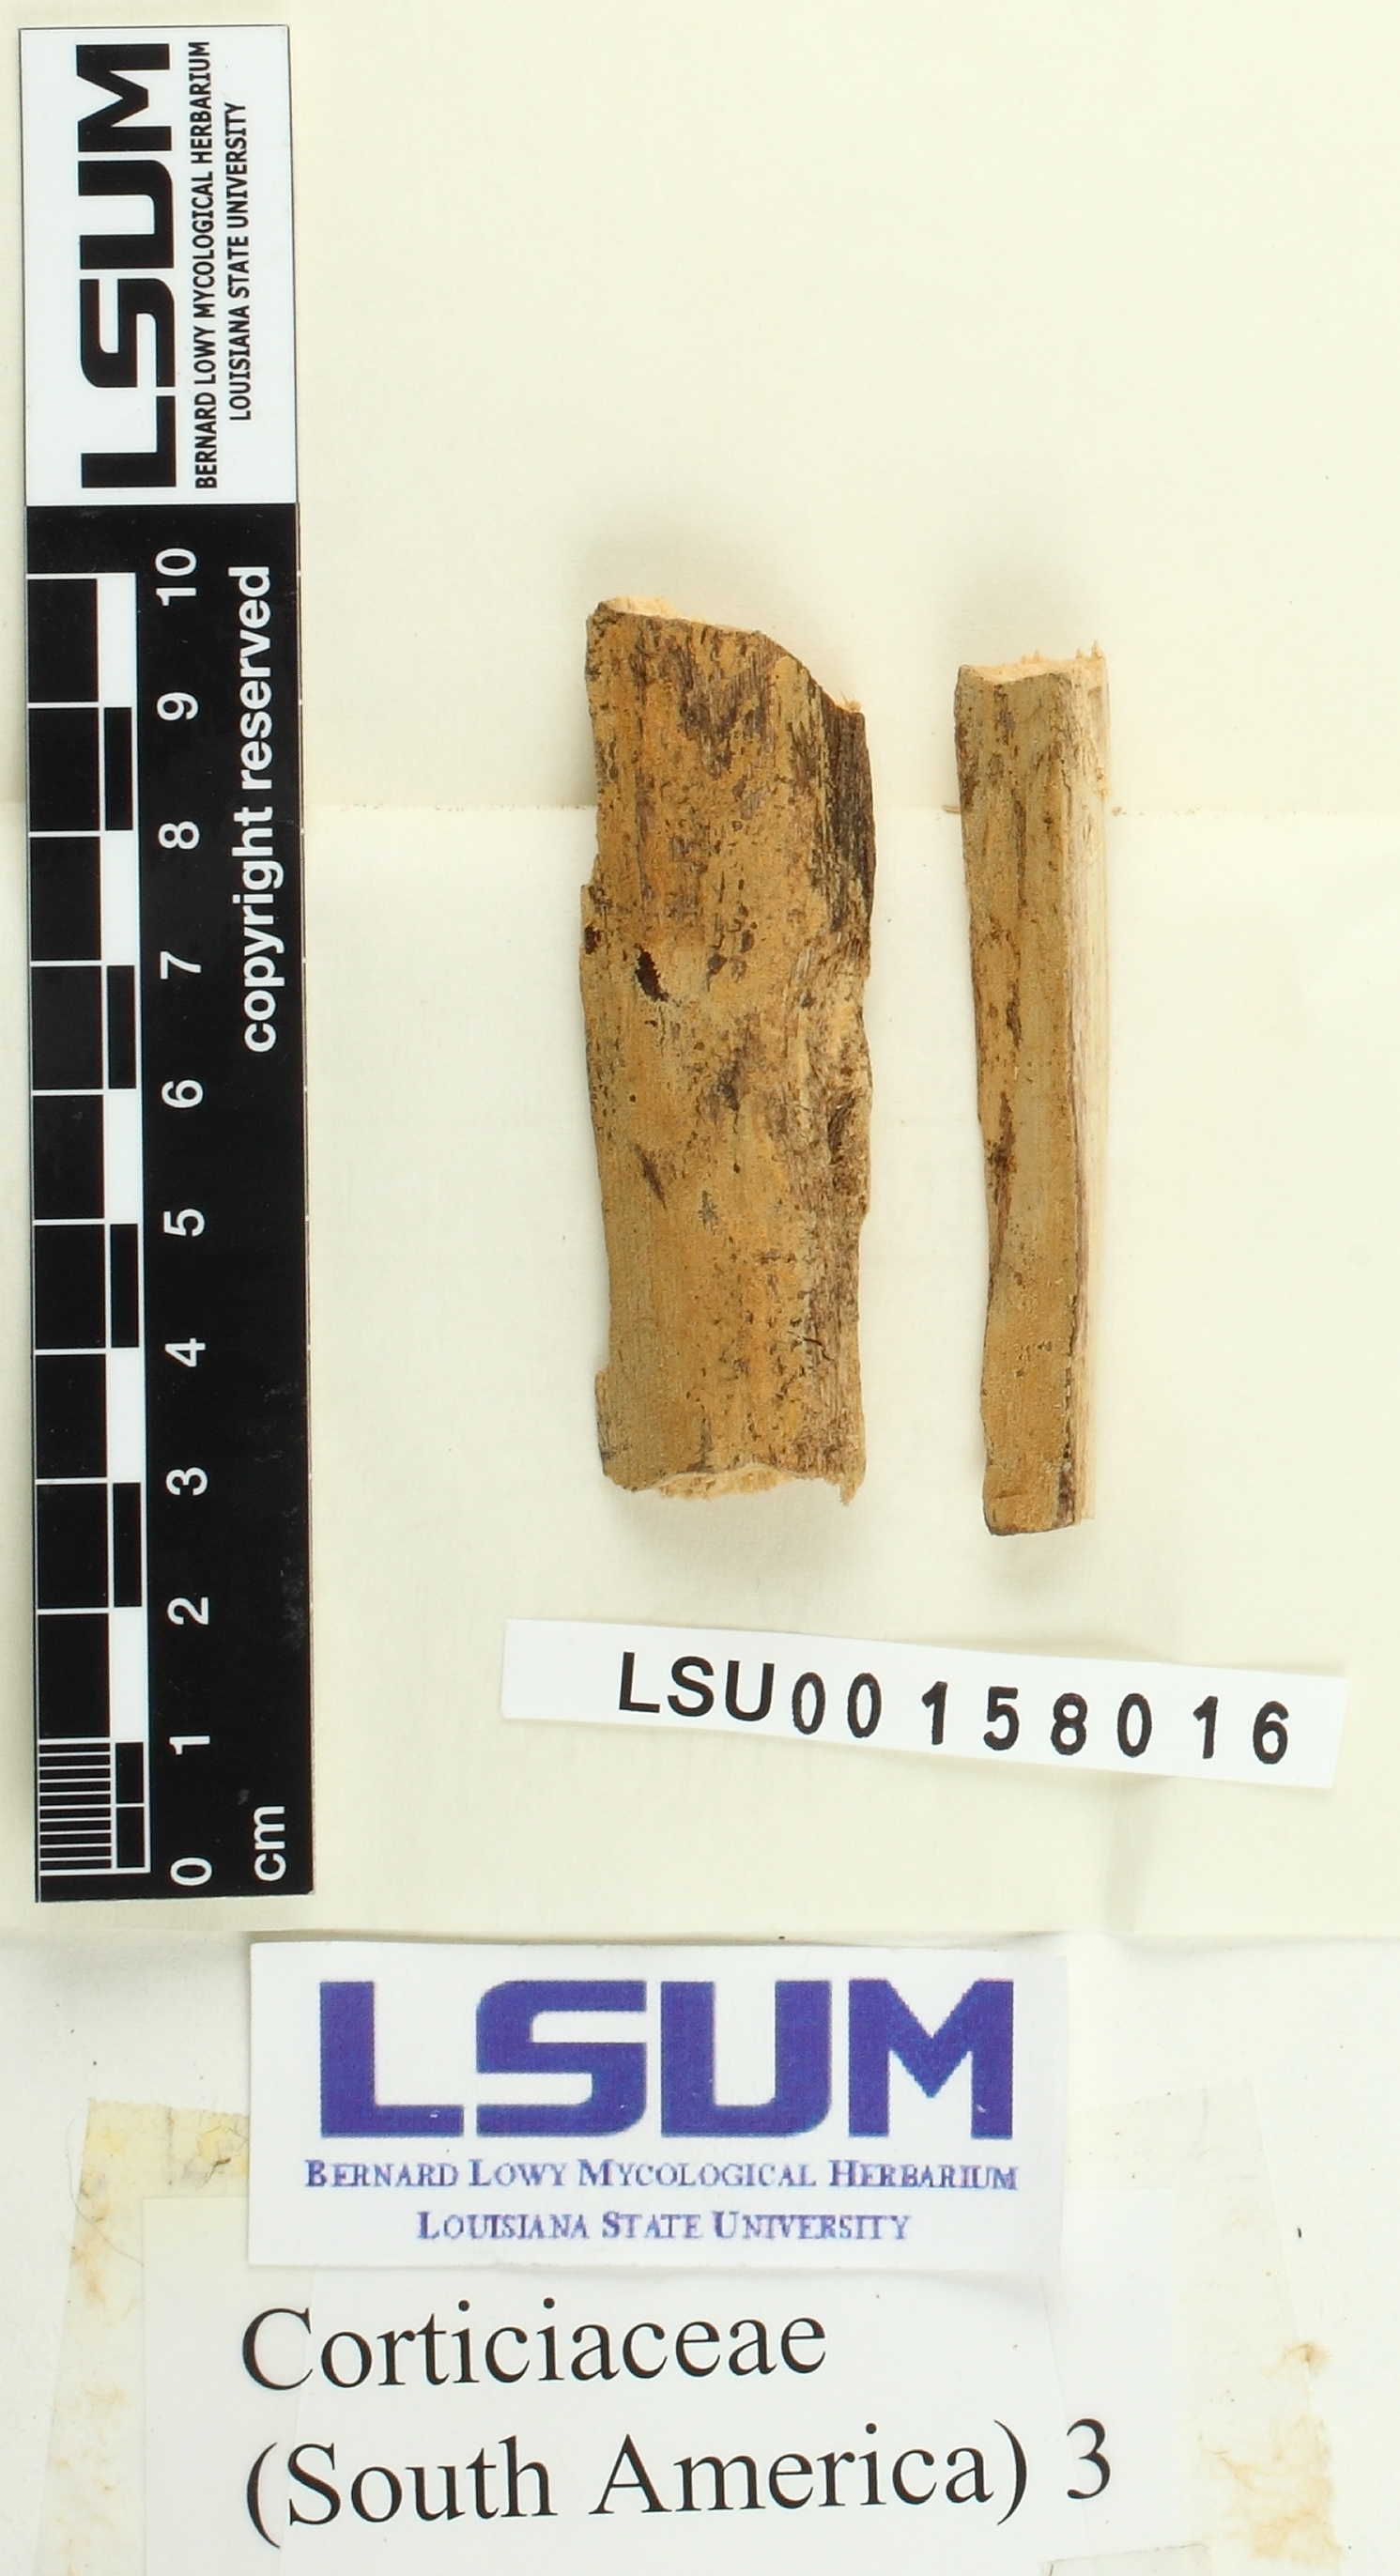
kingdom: Fungi
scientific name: Fungi
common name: Fungi
